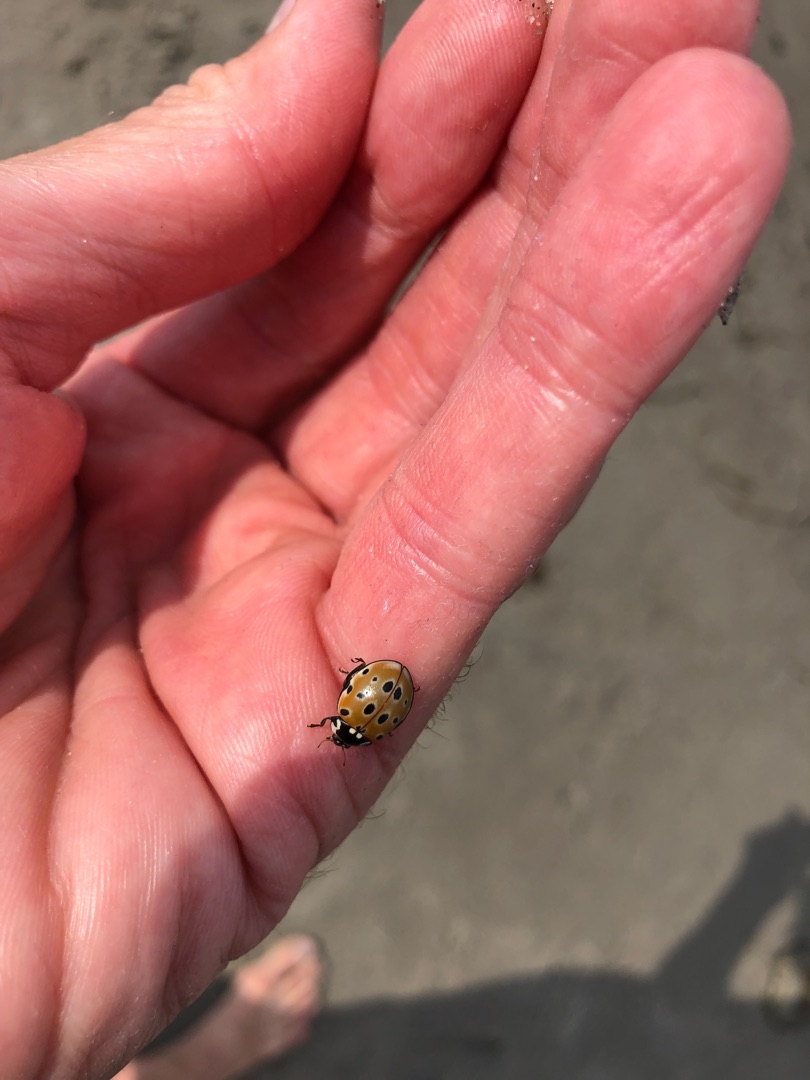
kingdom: Animalia
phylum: Arthropoda
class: Insecta
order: Coleoptera
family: Coccinellidae
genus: Anatis
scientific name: Anatis ocellata
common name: Øjeplettet mariehøne
